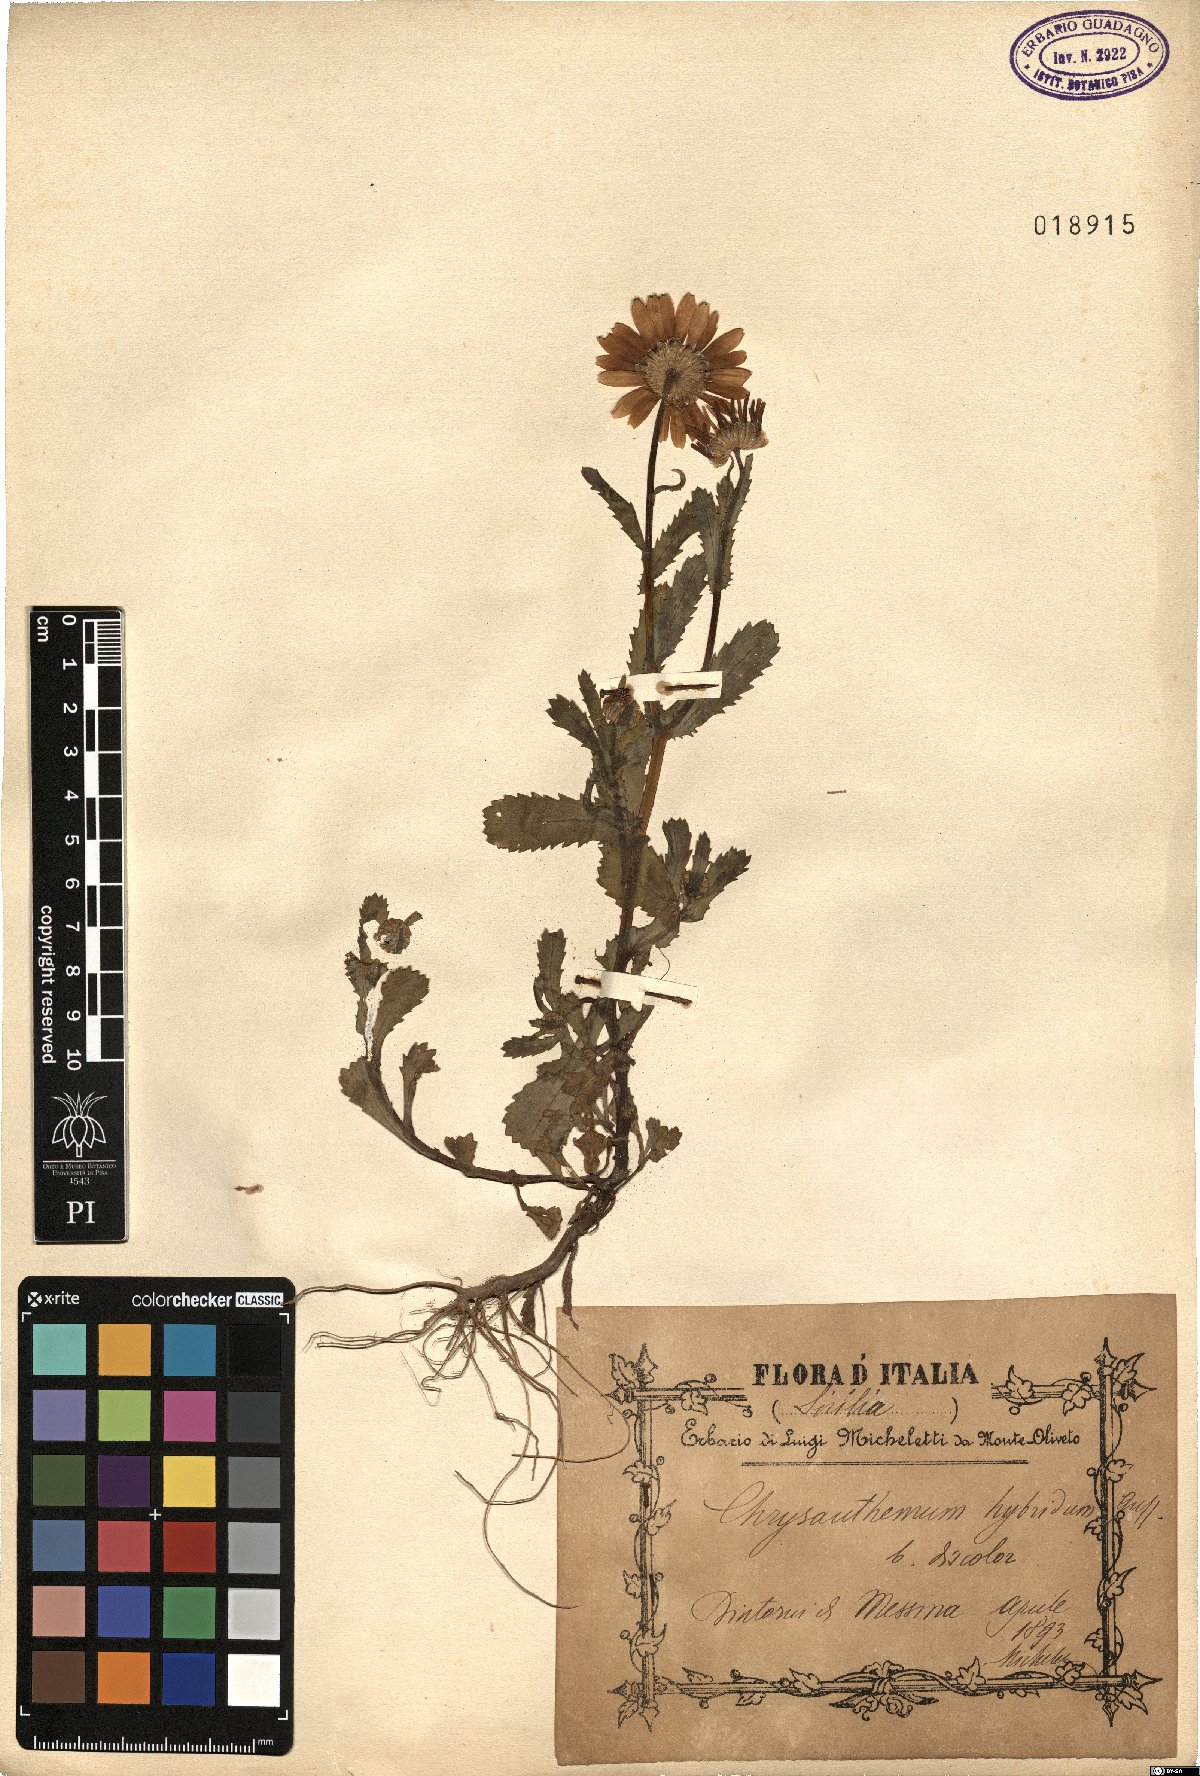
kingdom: Plantae
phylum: Tracheophyta
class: Magnoliopsida
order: Asterales
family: Asteraceae
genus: Coleostephus
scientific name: Coleostephus myconis
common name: Mediterranean marigold
